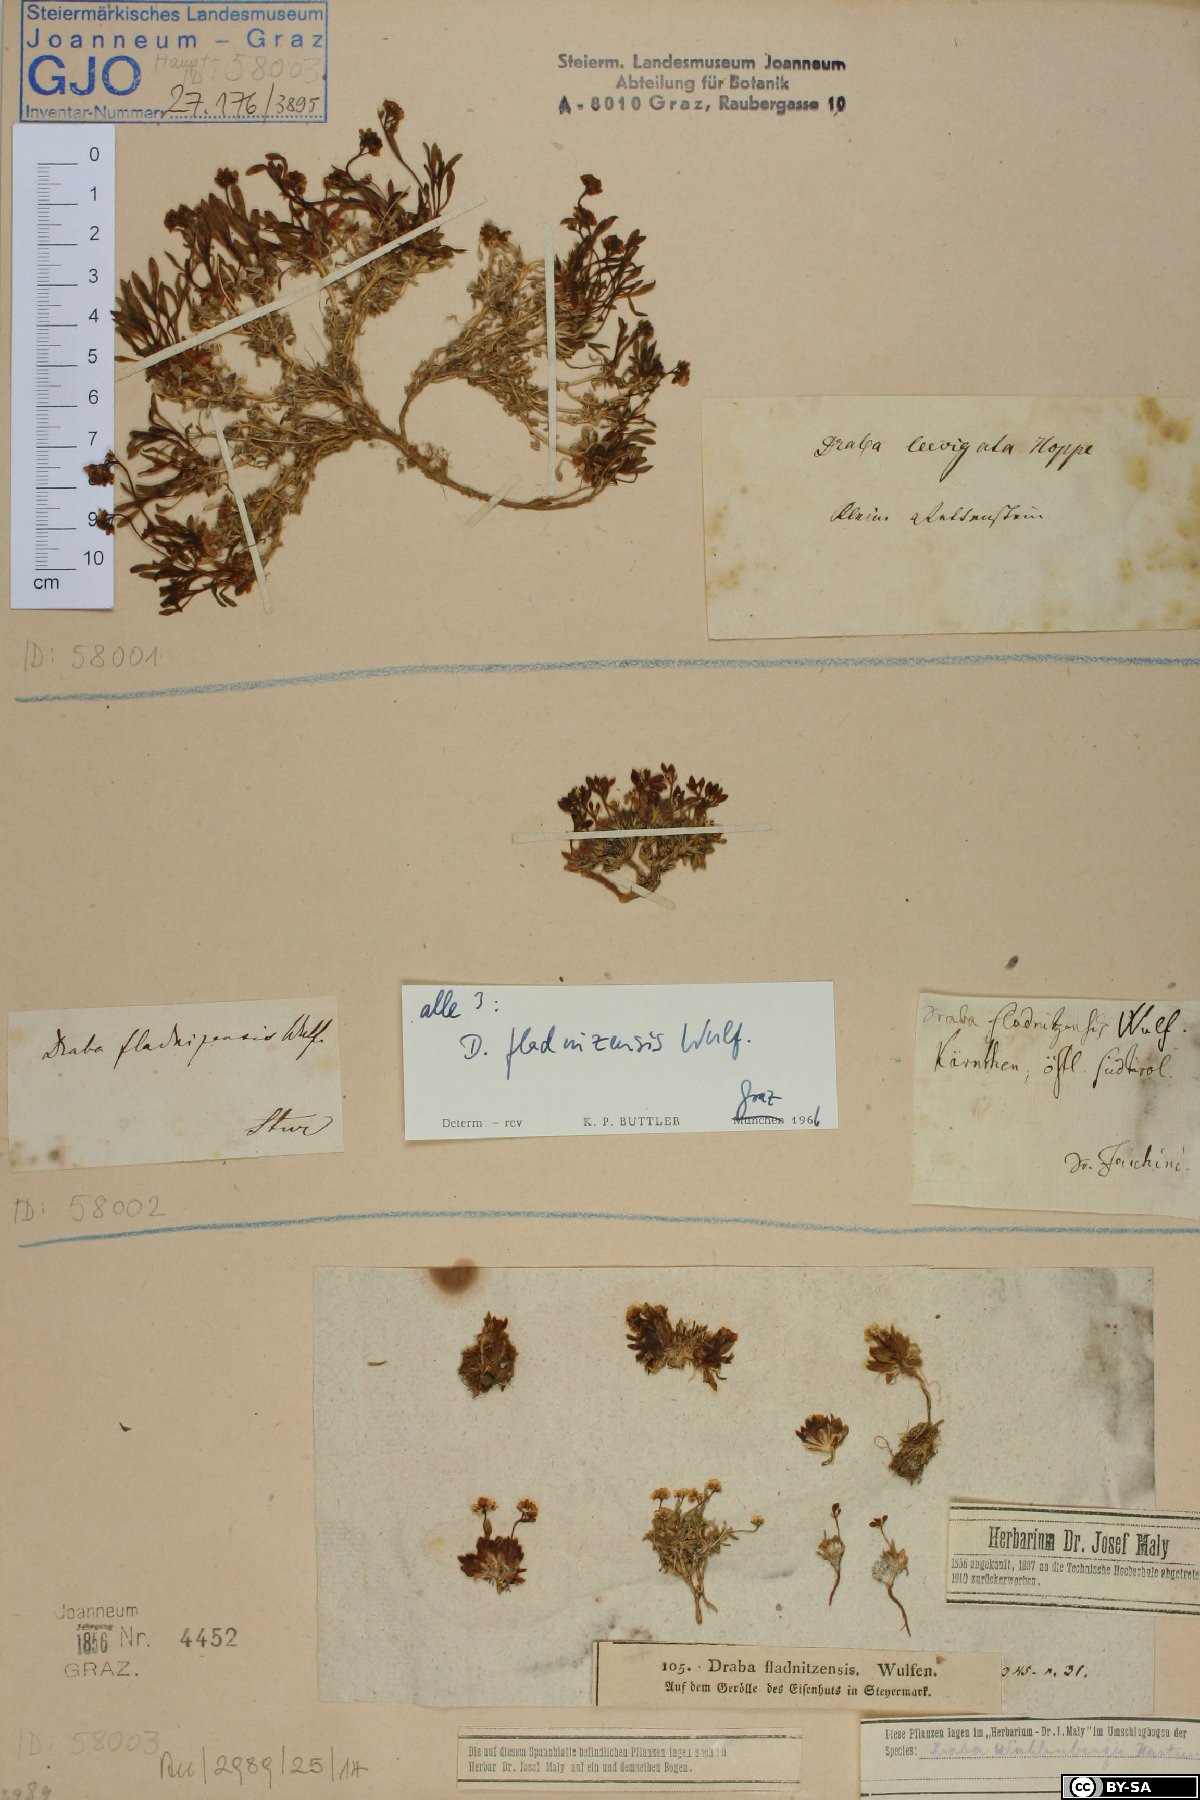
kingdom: Plantae
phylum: Tracheophyta
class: Magnoliopsida
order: Brassicales
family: Brassicaceae
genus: Draba
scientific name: Draba fladnizensis
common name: Austrian draba
